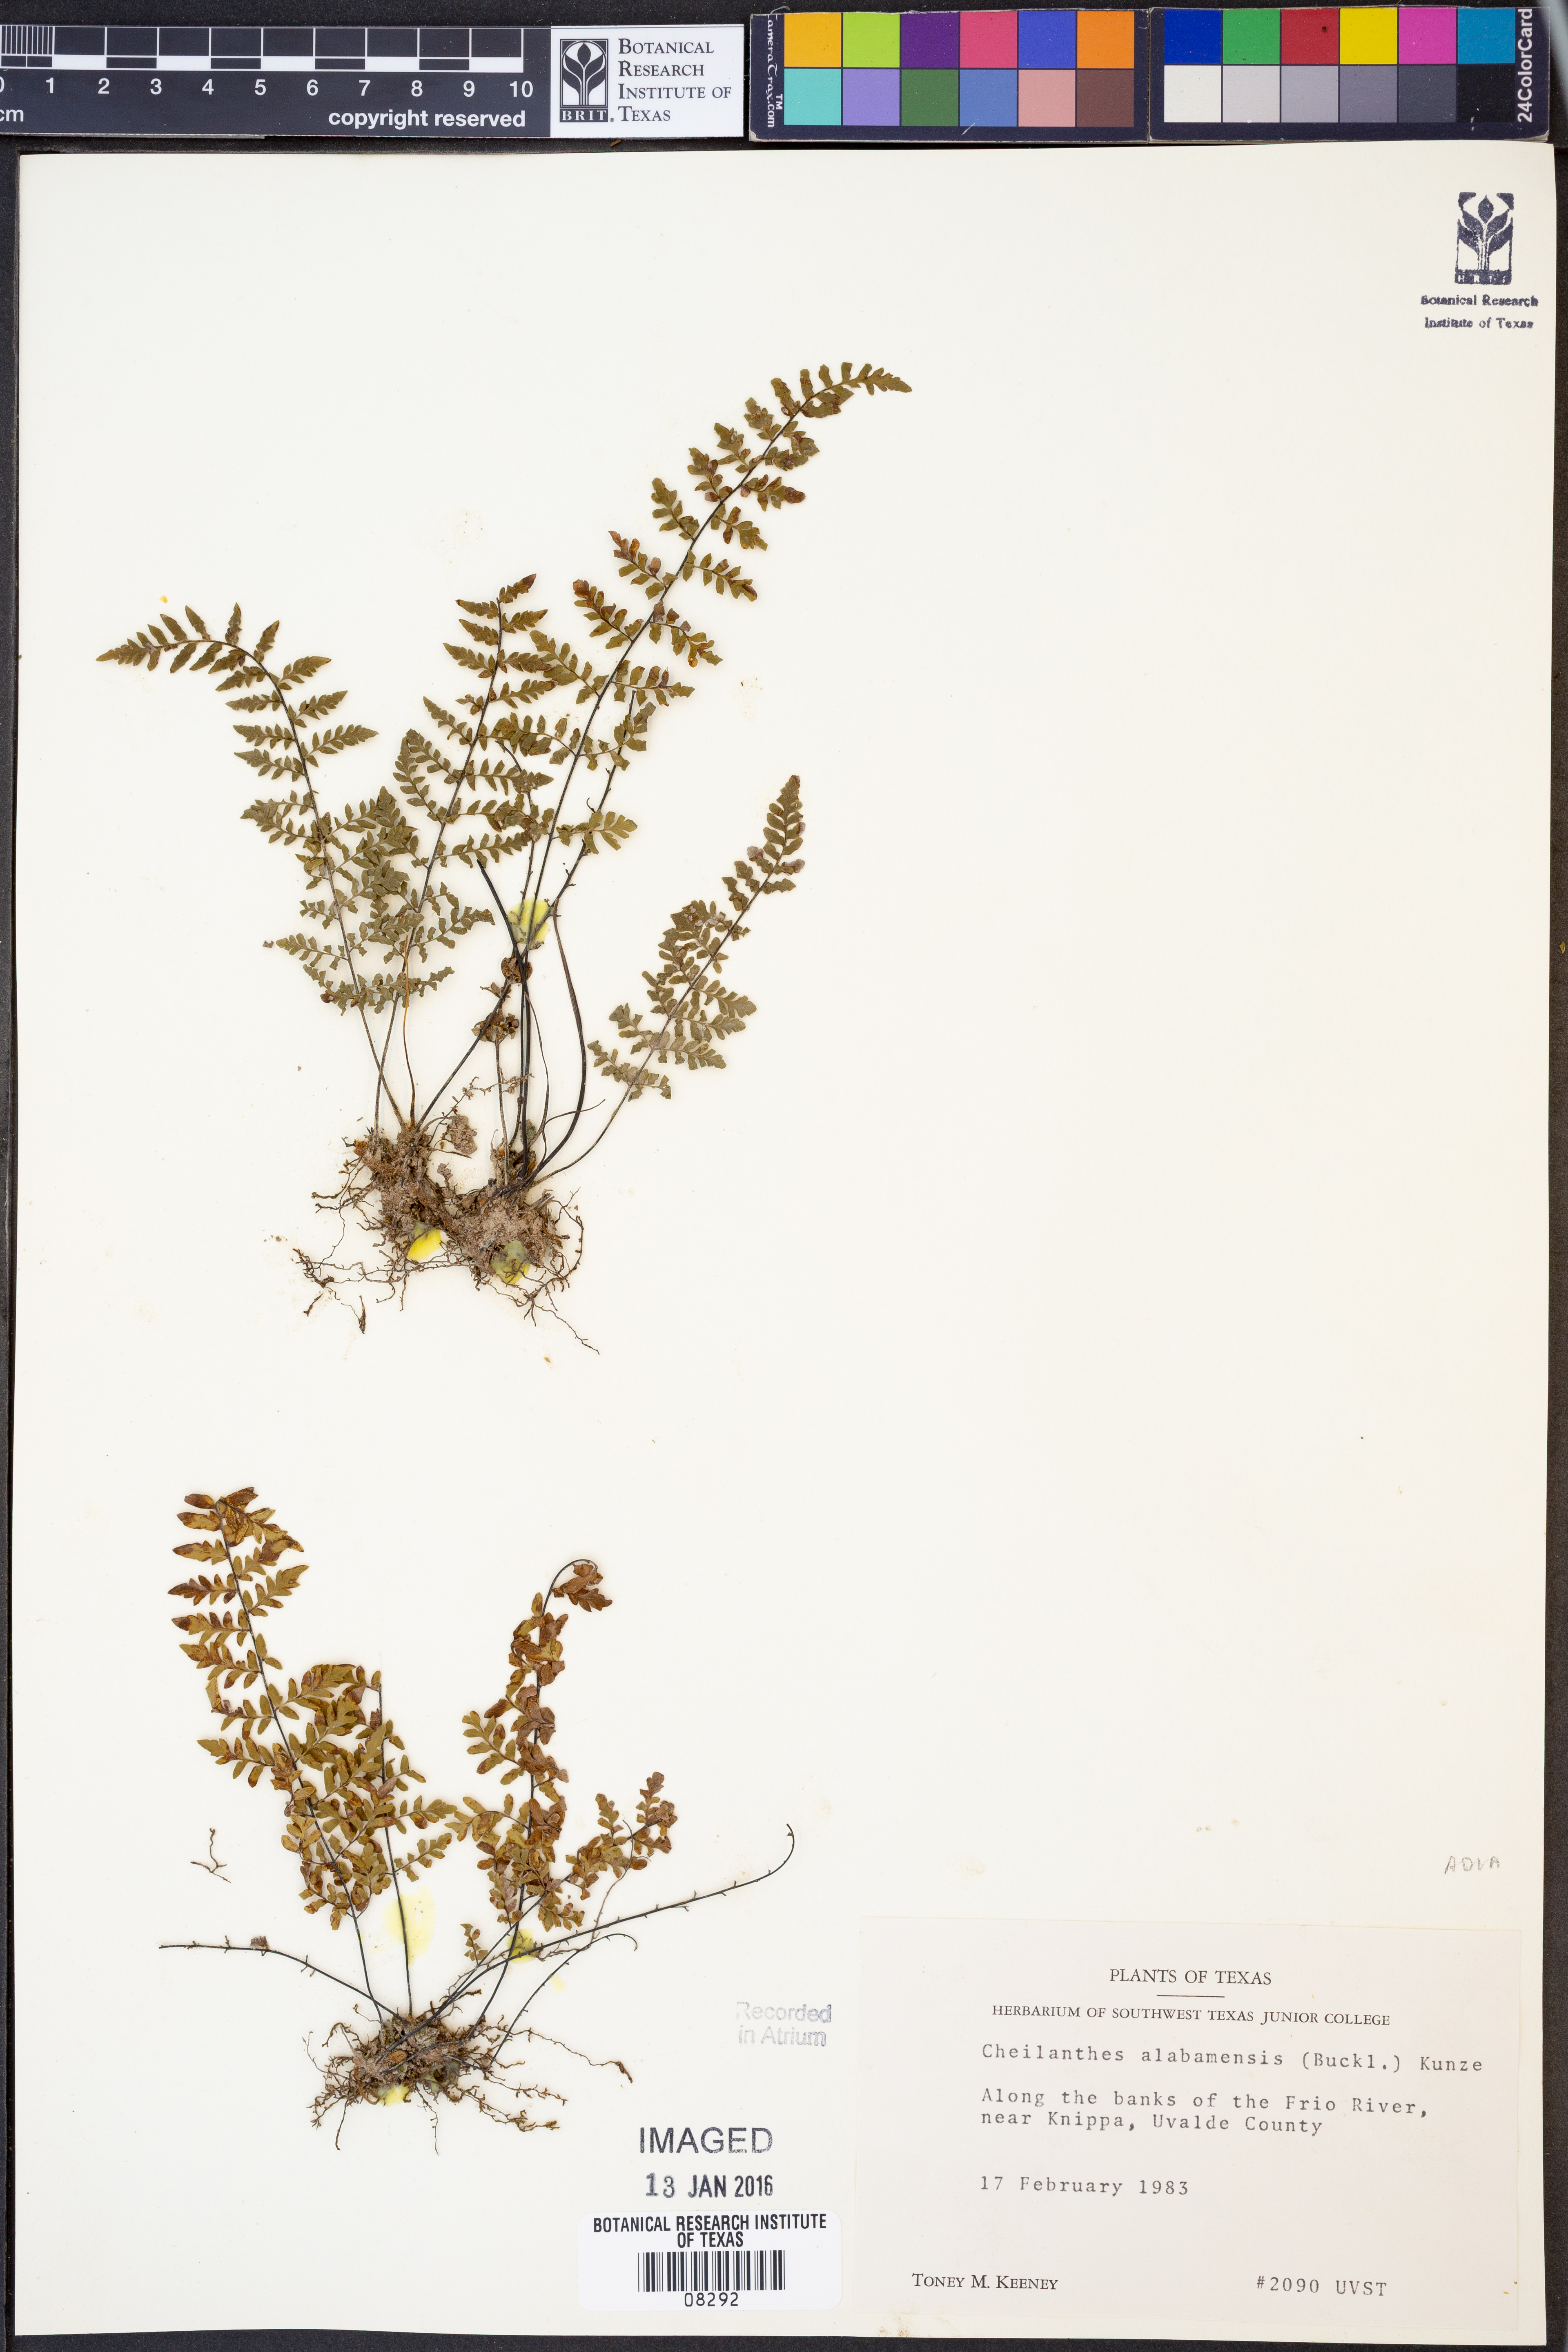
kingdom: Plantae
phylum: Tracheophyta
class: Polypodiopsida
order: Polypodiales
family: Pteridaceae
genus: Myriopteris
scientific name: Myriopteris alabamensis
